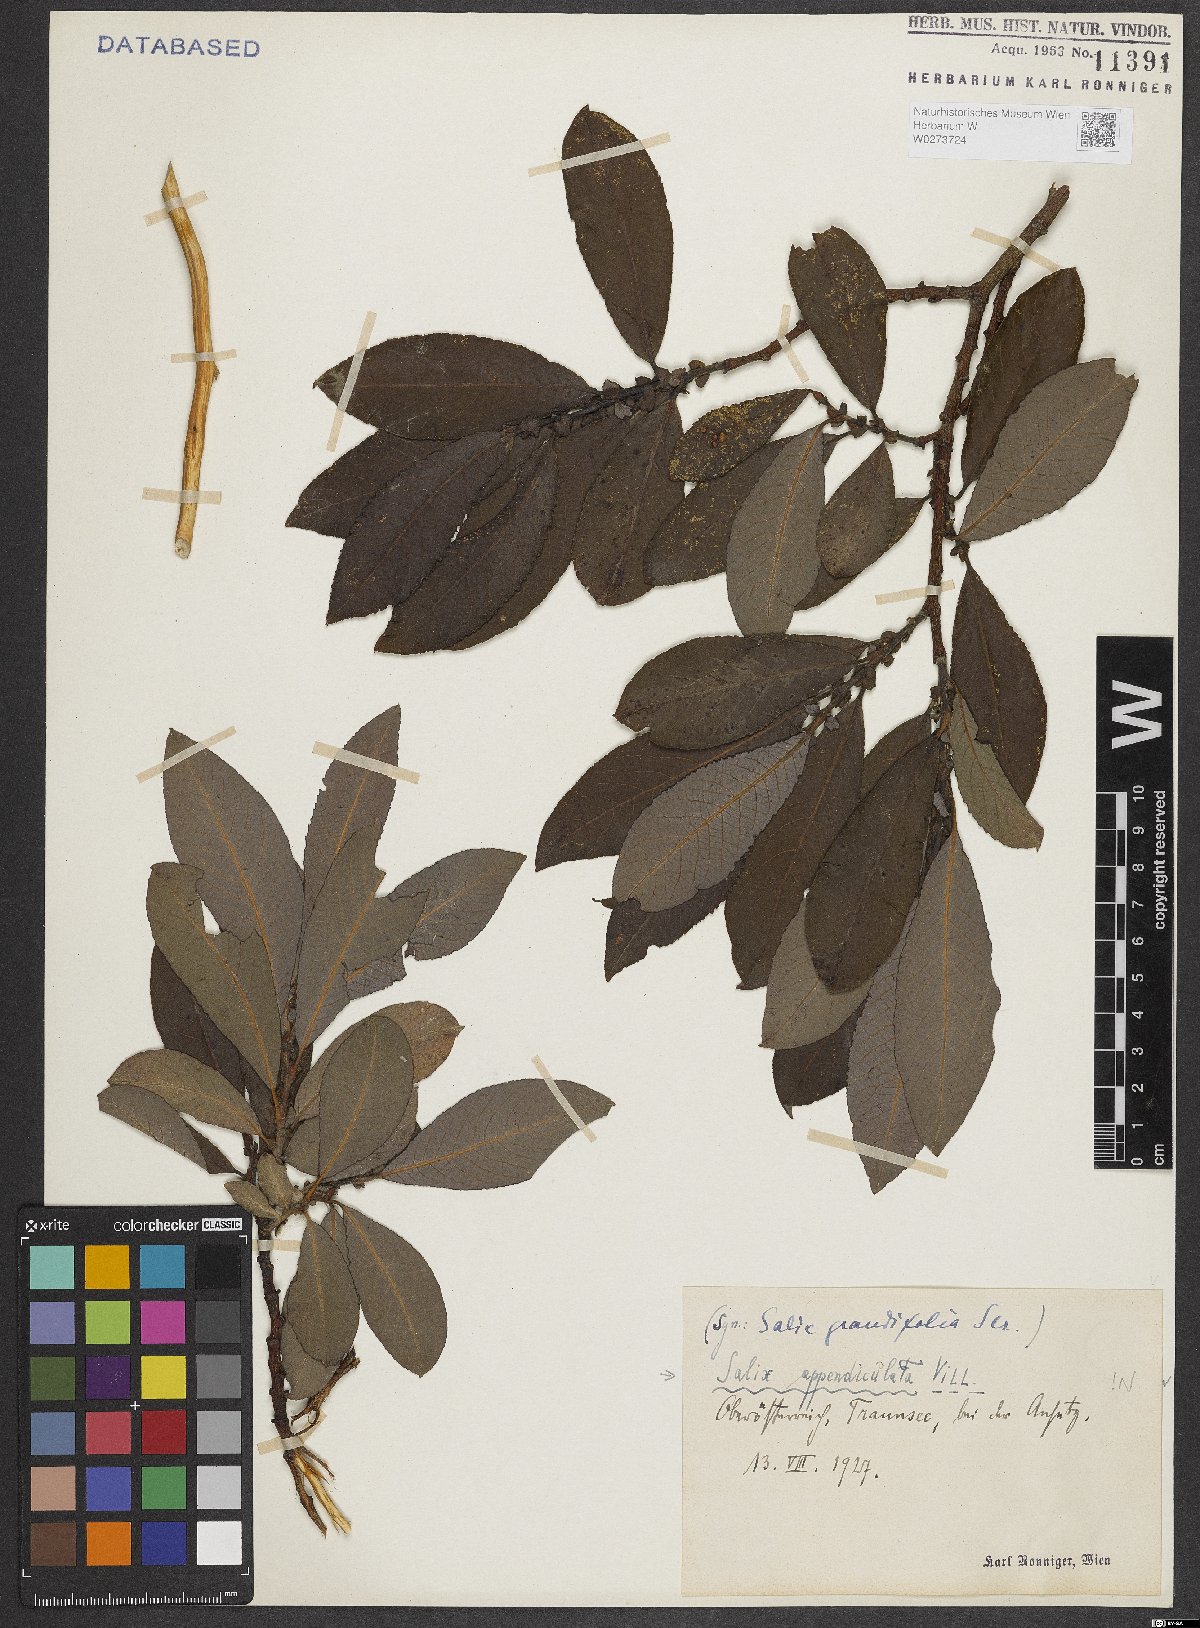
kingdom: Plantae
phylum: Tracheophyta
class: Magnoliopsida
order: Malpighiales
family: Salicaceae
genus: Salix
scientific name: Salix appendiculata
